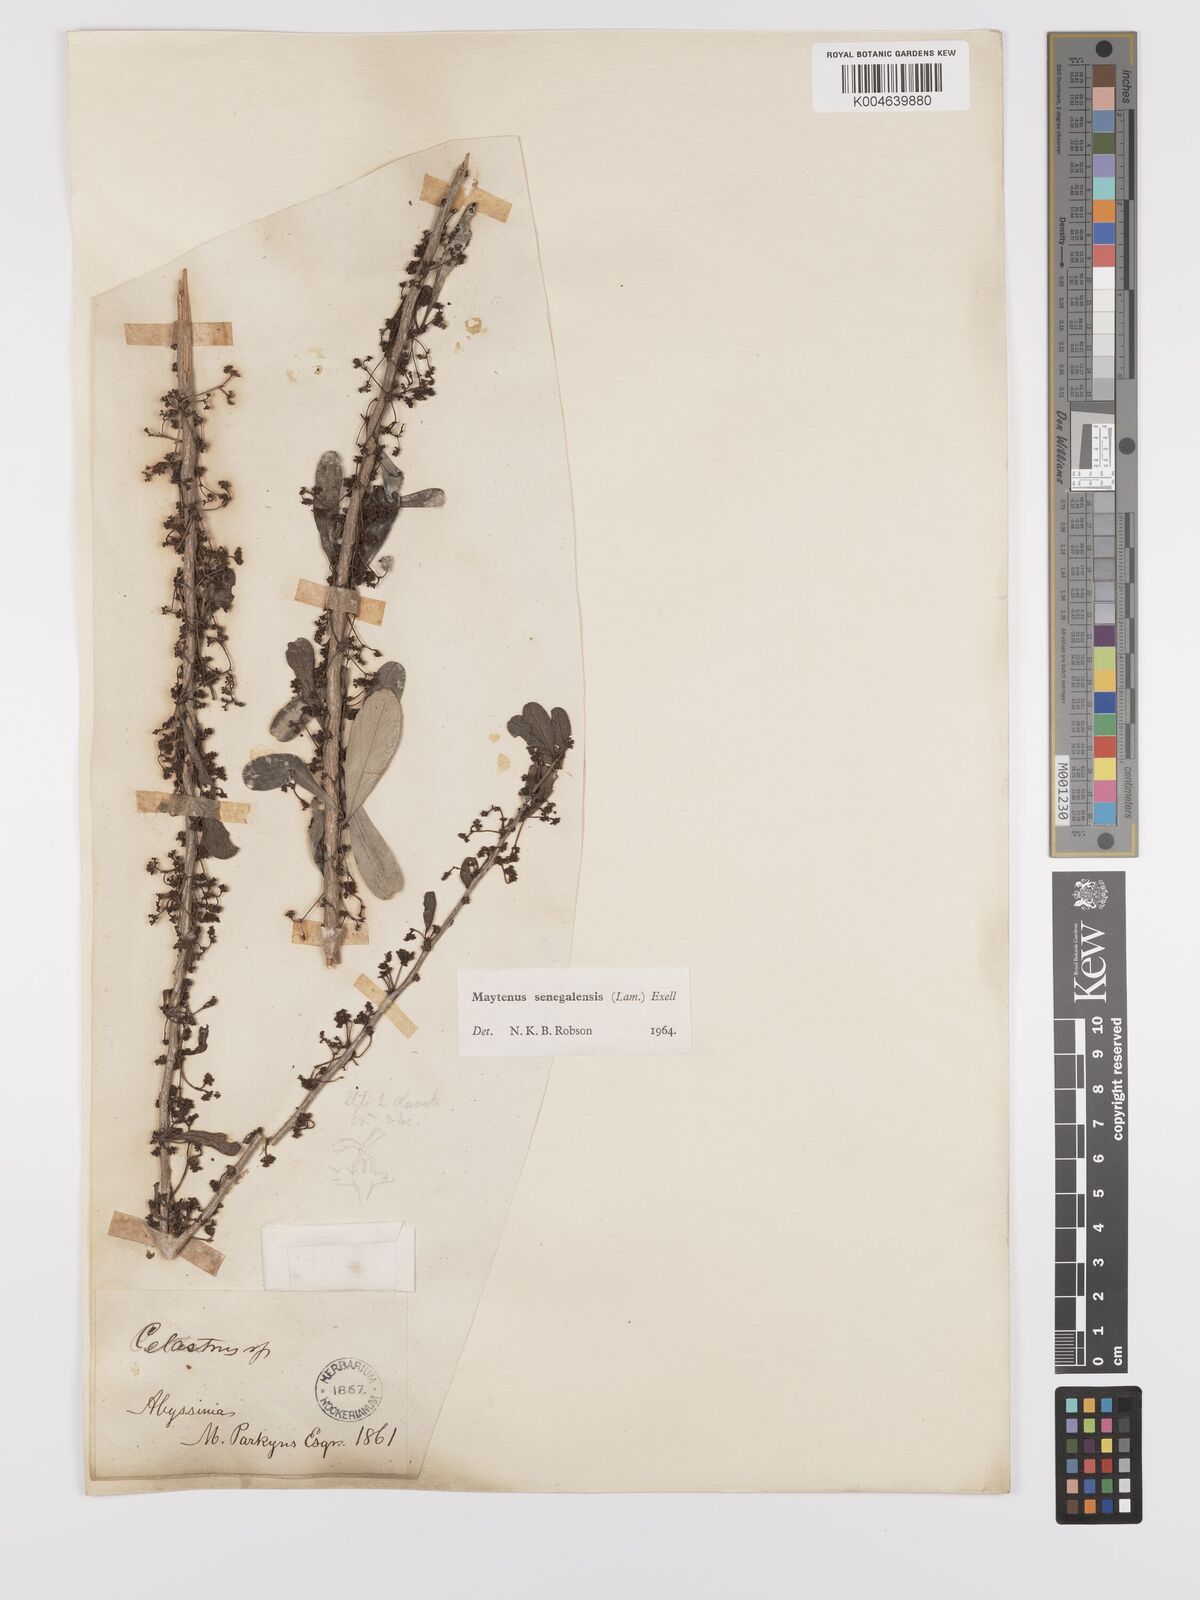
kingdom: Plantae
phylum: Tracheophyta
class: Magnoliopsida
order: Celastrales
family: Celastraceae
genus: Gymnosporia
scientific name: Gymnosporia senegalensis
